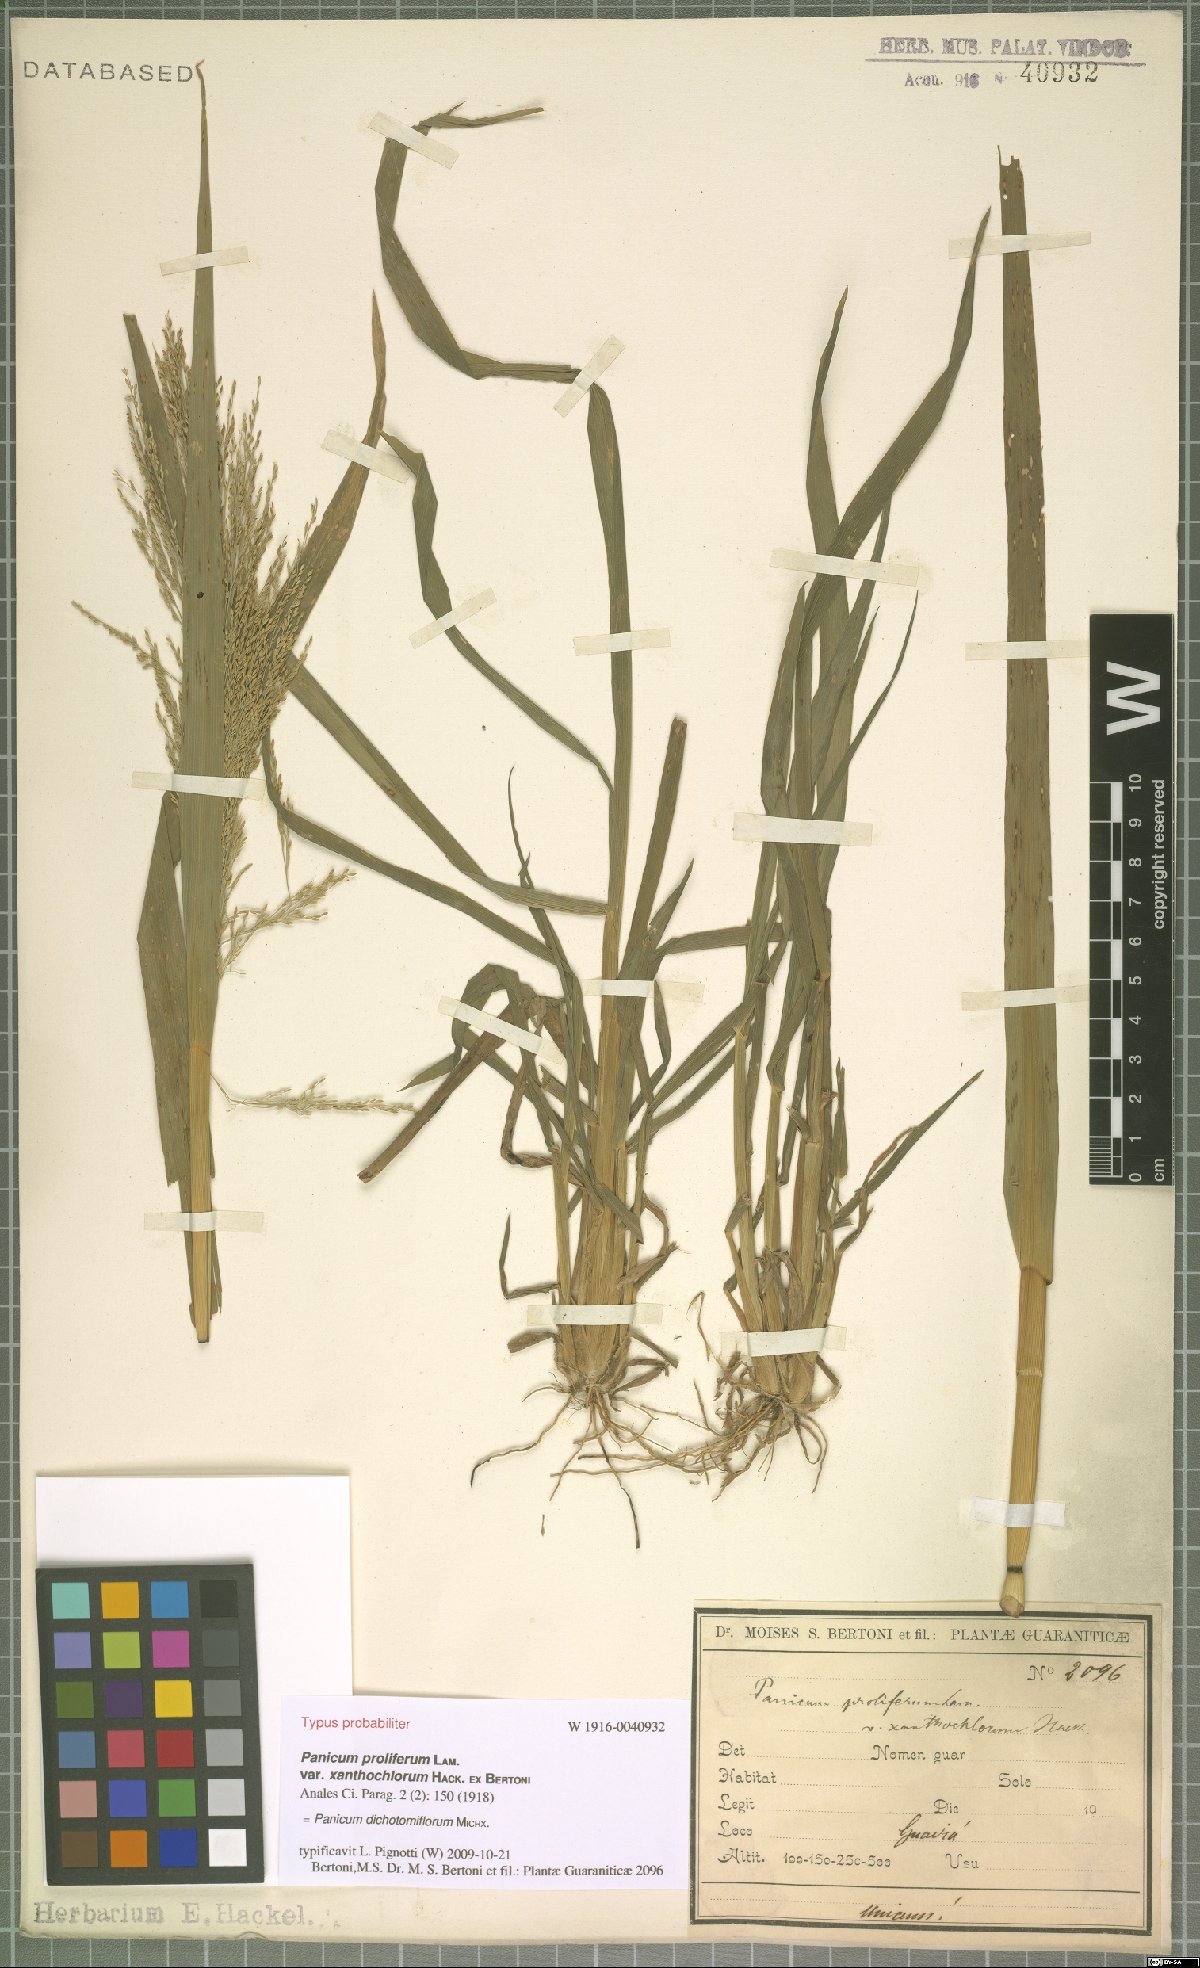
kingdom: Plantae
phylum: Tracheophyta
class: Liliopsida
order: Poales
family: Poaceae
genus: Panicum
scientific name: Panicum dichotomiflorum
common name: Autumn millet
